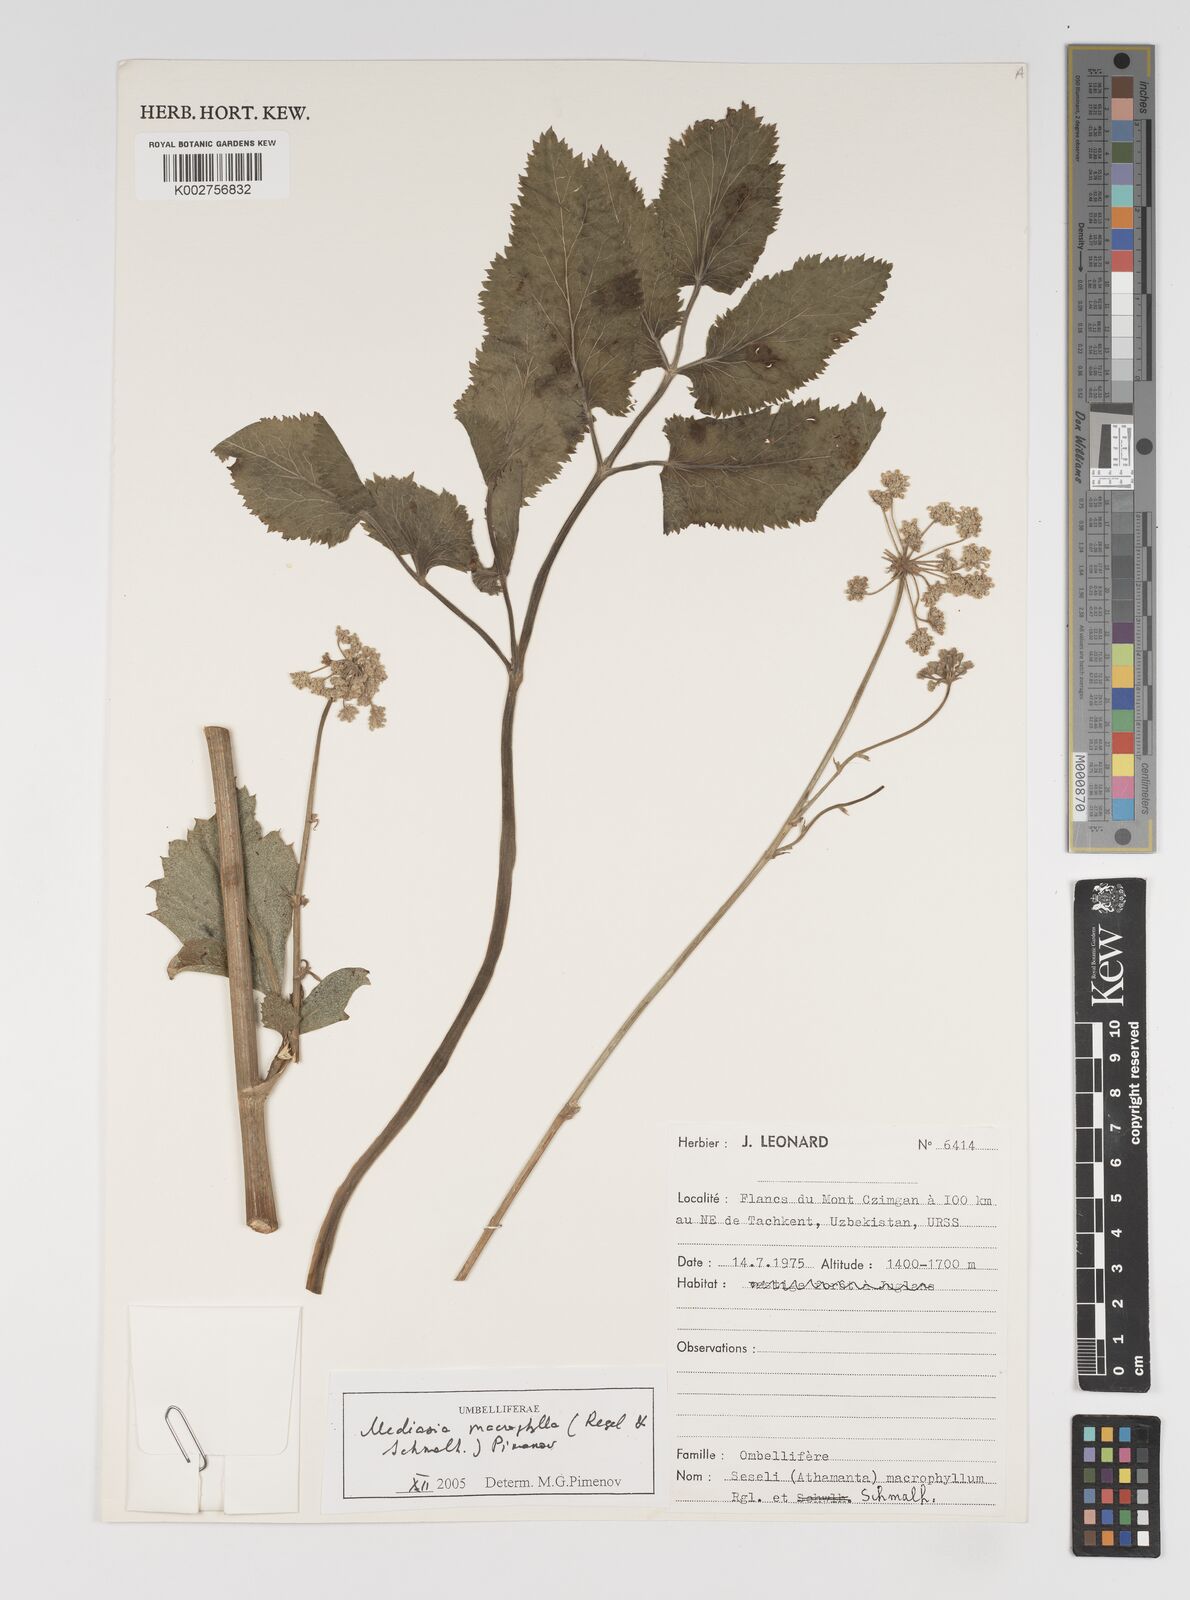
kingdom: Plantae
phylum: Tracheophyta
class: Magnoliopsida
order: Apiales
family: Apiaceae
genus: Mediasia
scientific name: Mediasia macrophylla
